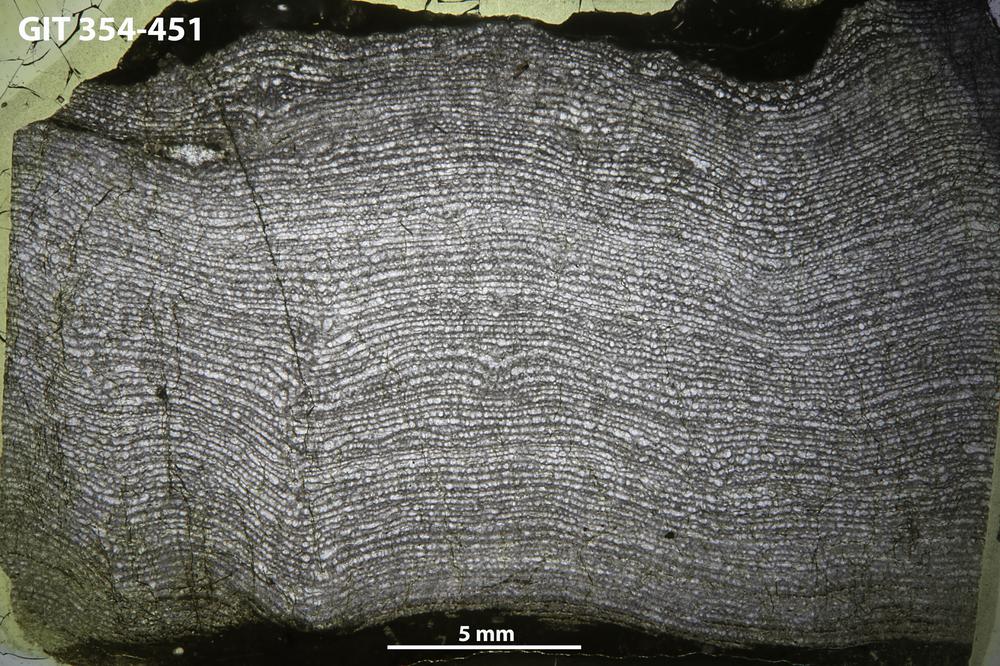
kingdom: Animalia
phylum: Porifera
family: Clathrodictyidae
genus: Clathrodictyon
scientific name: Clathrodictyon Stromatopora variolaris
